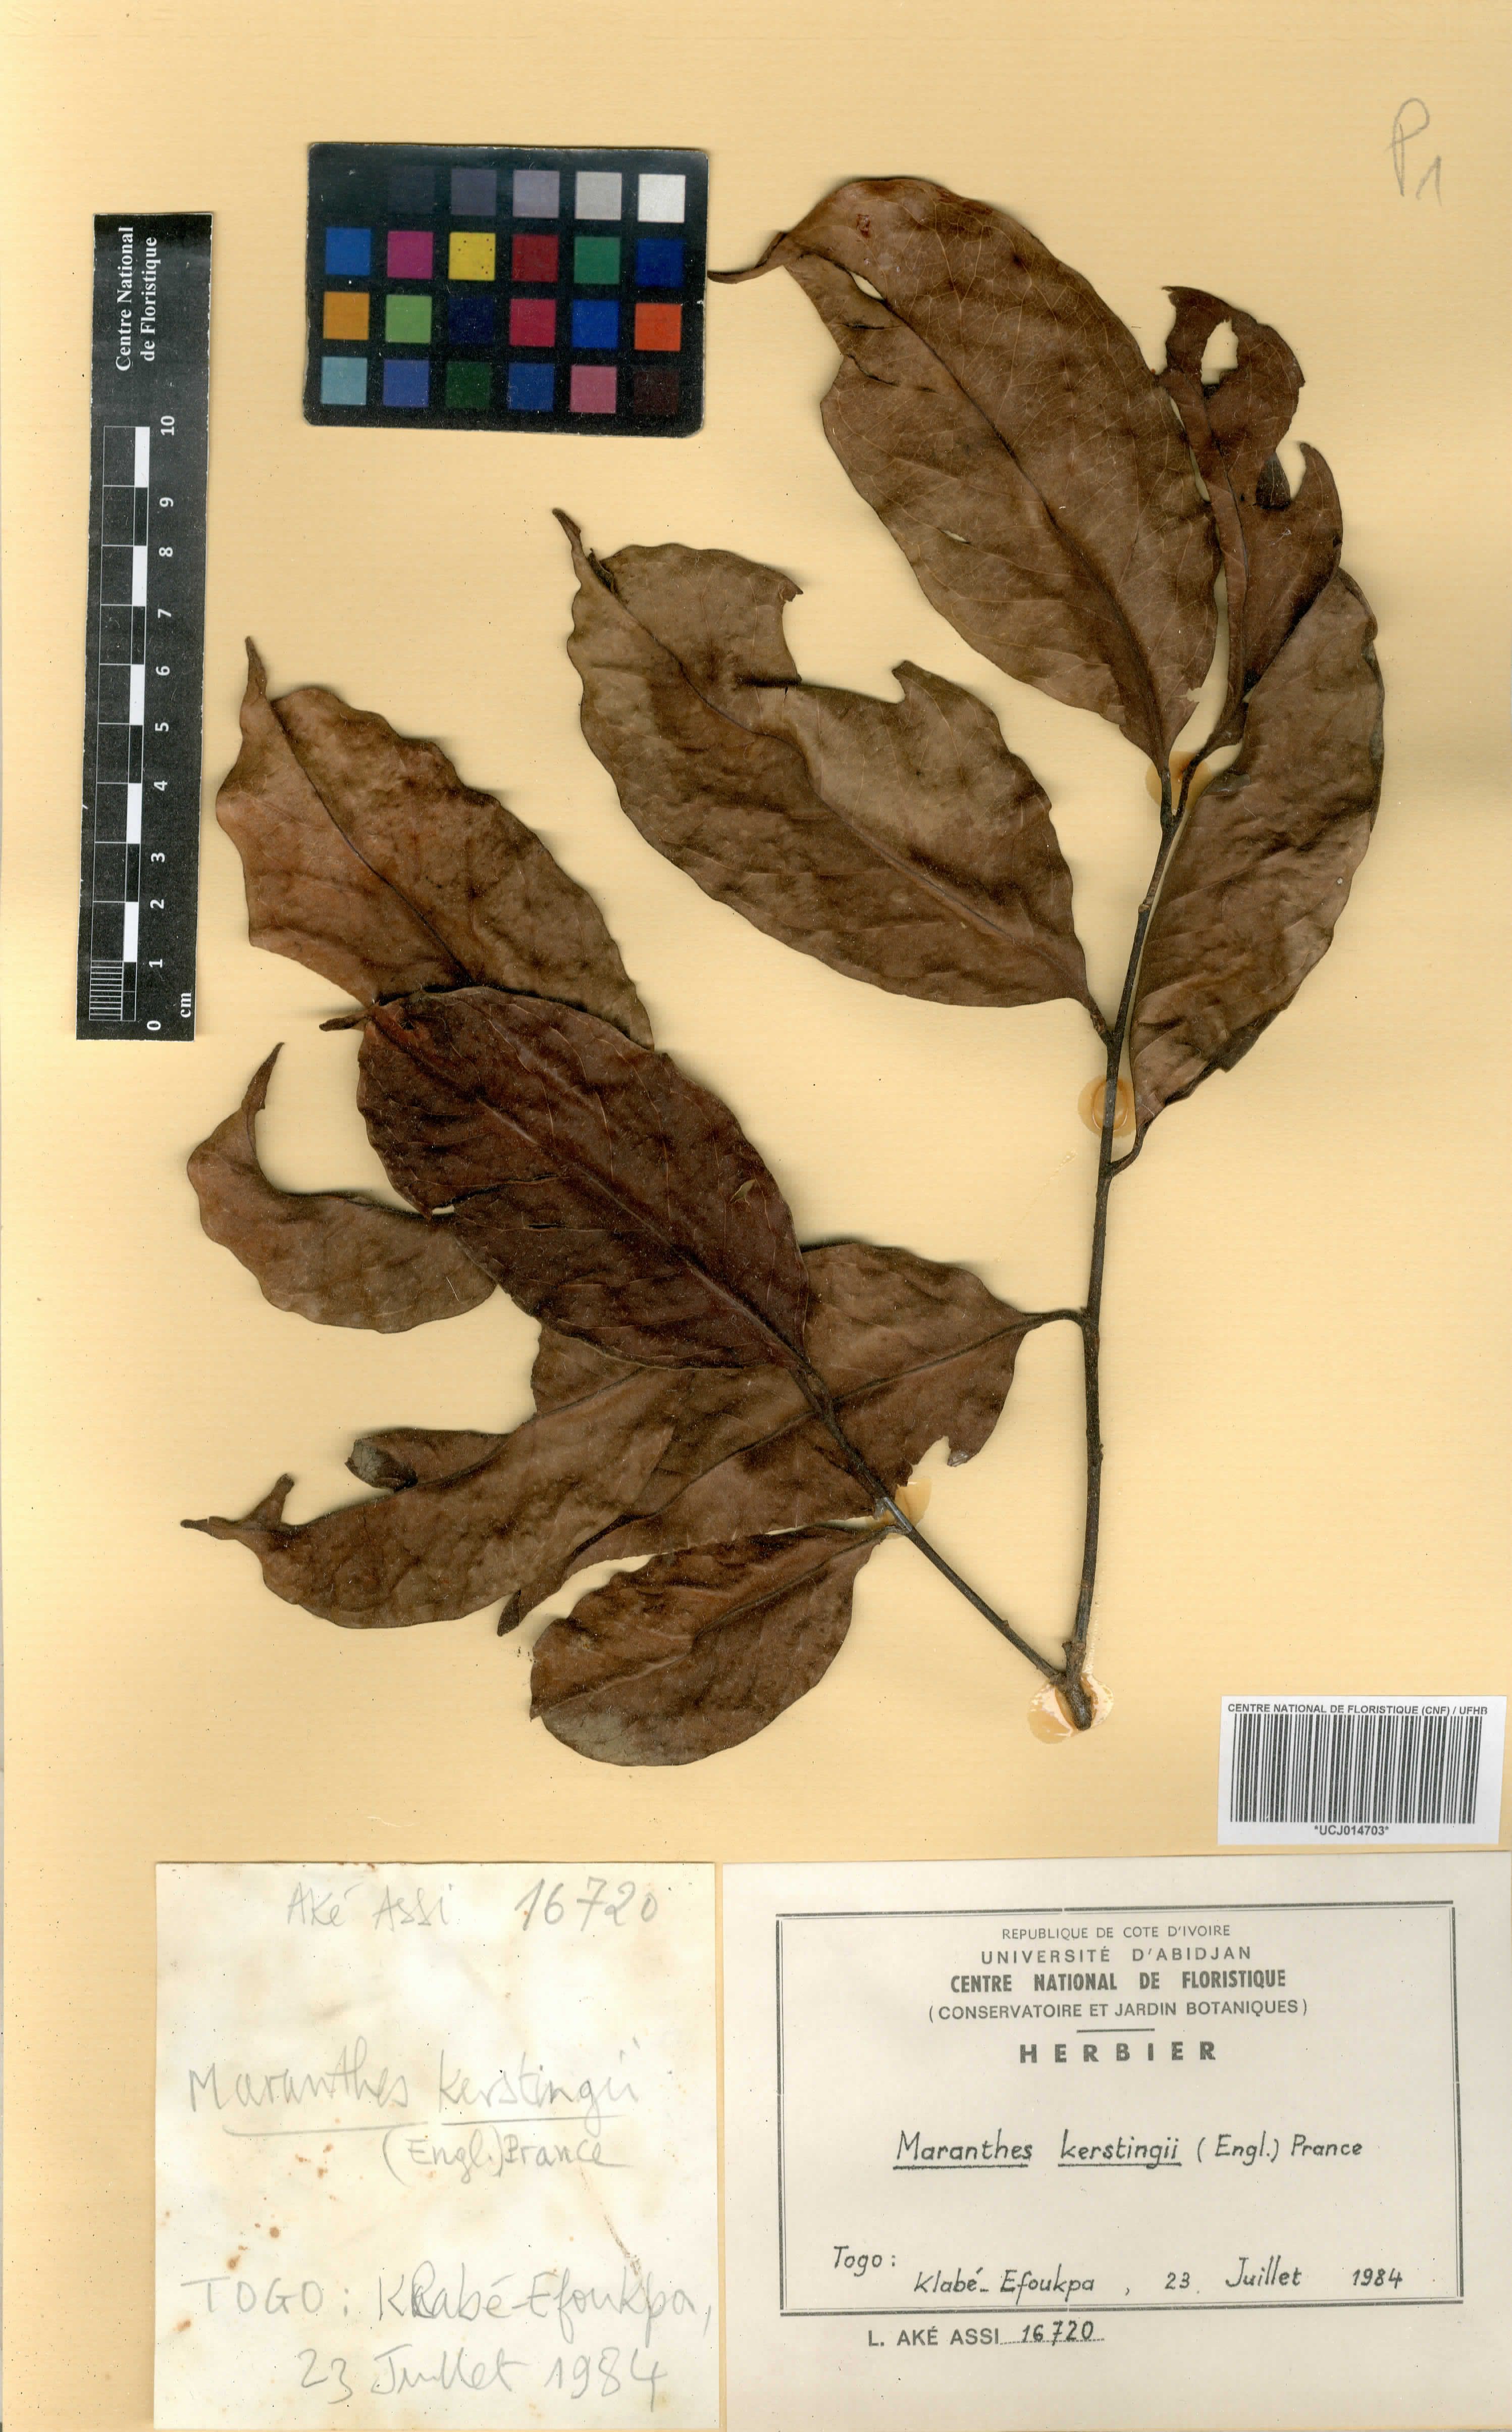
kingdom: Plantae
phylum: Tracheophyta
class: Magnoliopsida
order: Malpighiales
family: Chrysobalanaceae
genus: Maranthes
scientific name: Maranthes kerstingii
